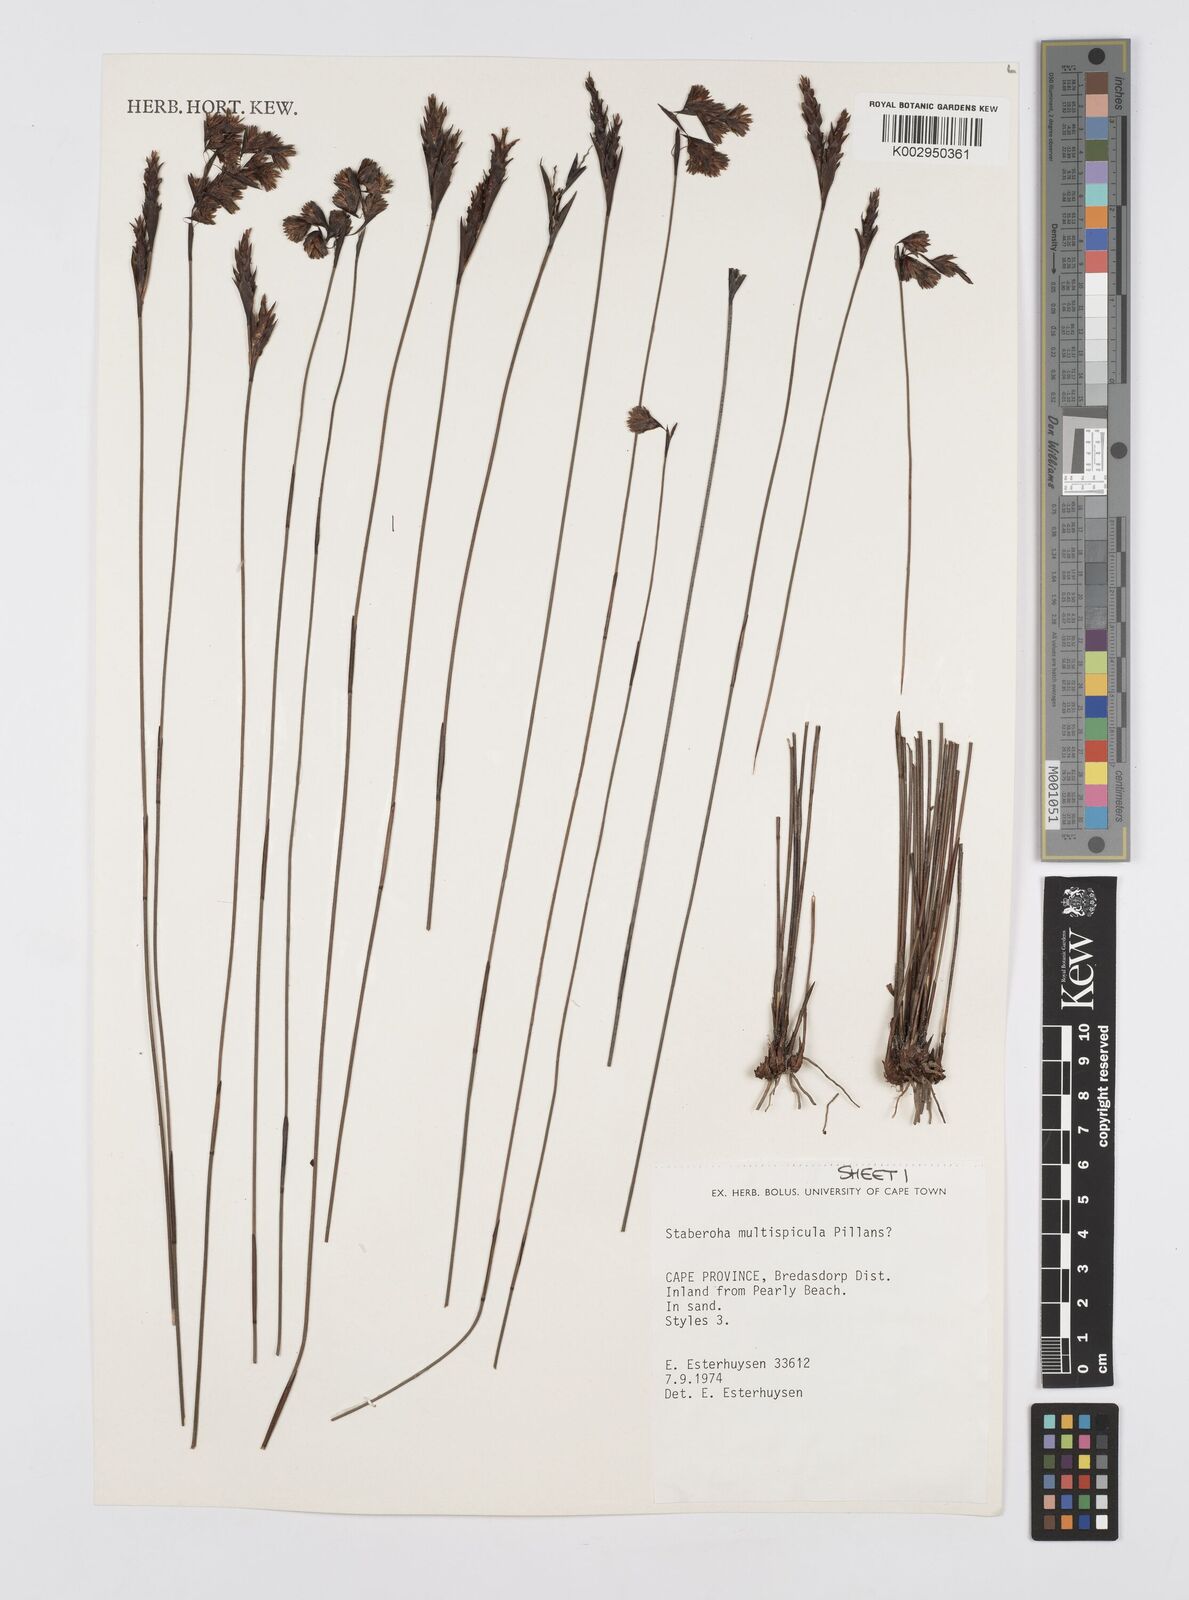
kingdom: Plantae
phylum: Tracheophyta
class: Liliopsida
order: Poales
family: Restionaceae
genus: Staberoha
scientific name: Staberoha multispicula
